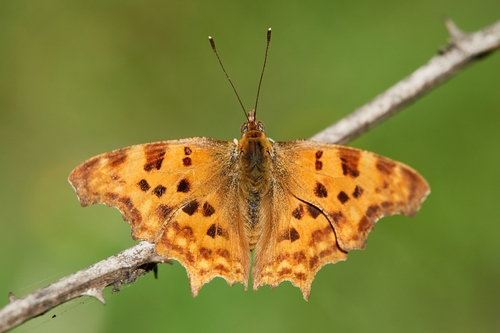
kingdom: Animalia
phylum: Arthropoda
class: Insecta
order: Lepidoptera
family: Nymphalidae
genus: Polygonia
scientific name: Polygonia c-album
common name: Comma
